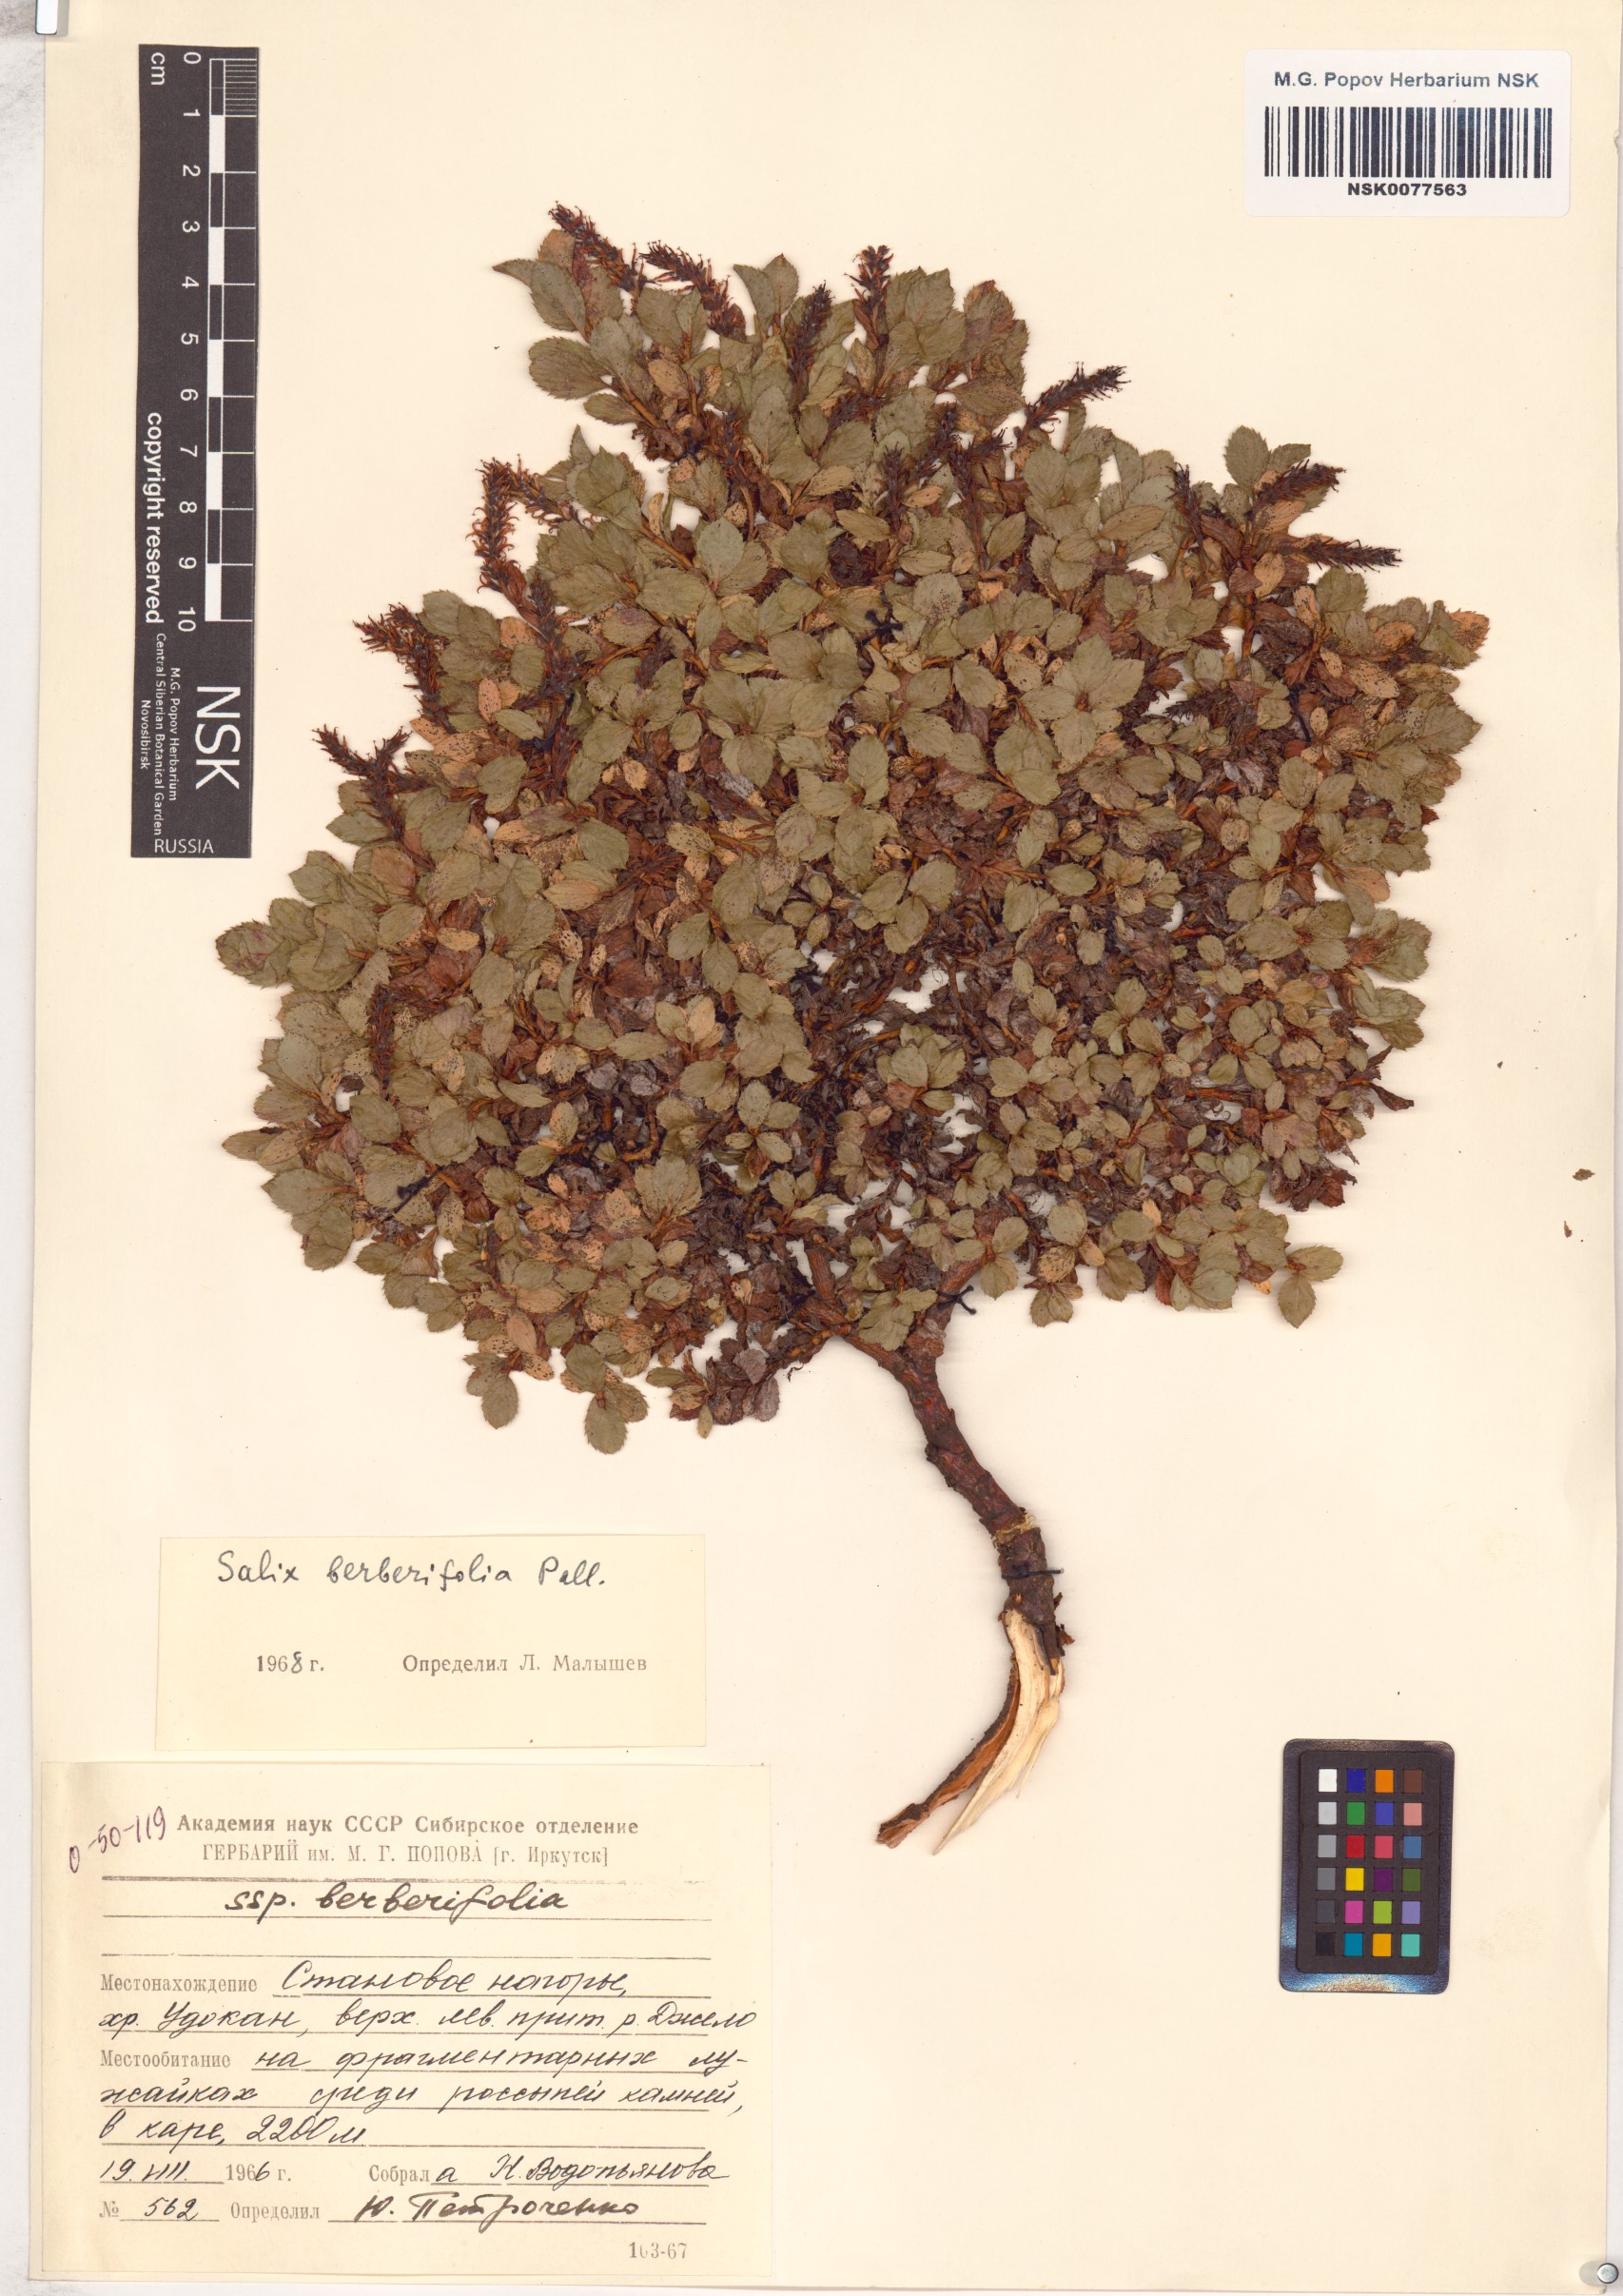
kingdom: Plantae
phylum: Tracheophyta
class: Magnoliopsida
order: Malpighiales
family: Salicaceae
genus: Salix
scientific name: Salix berberifolia
